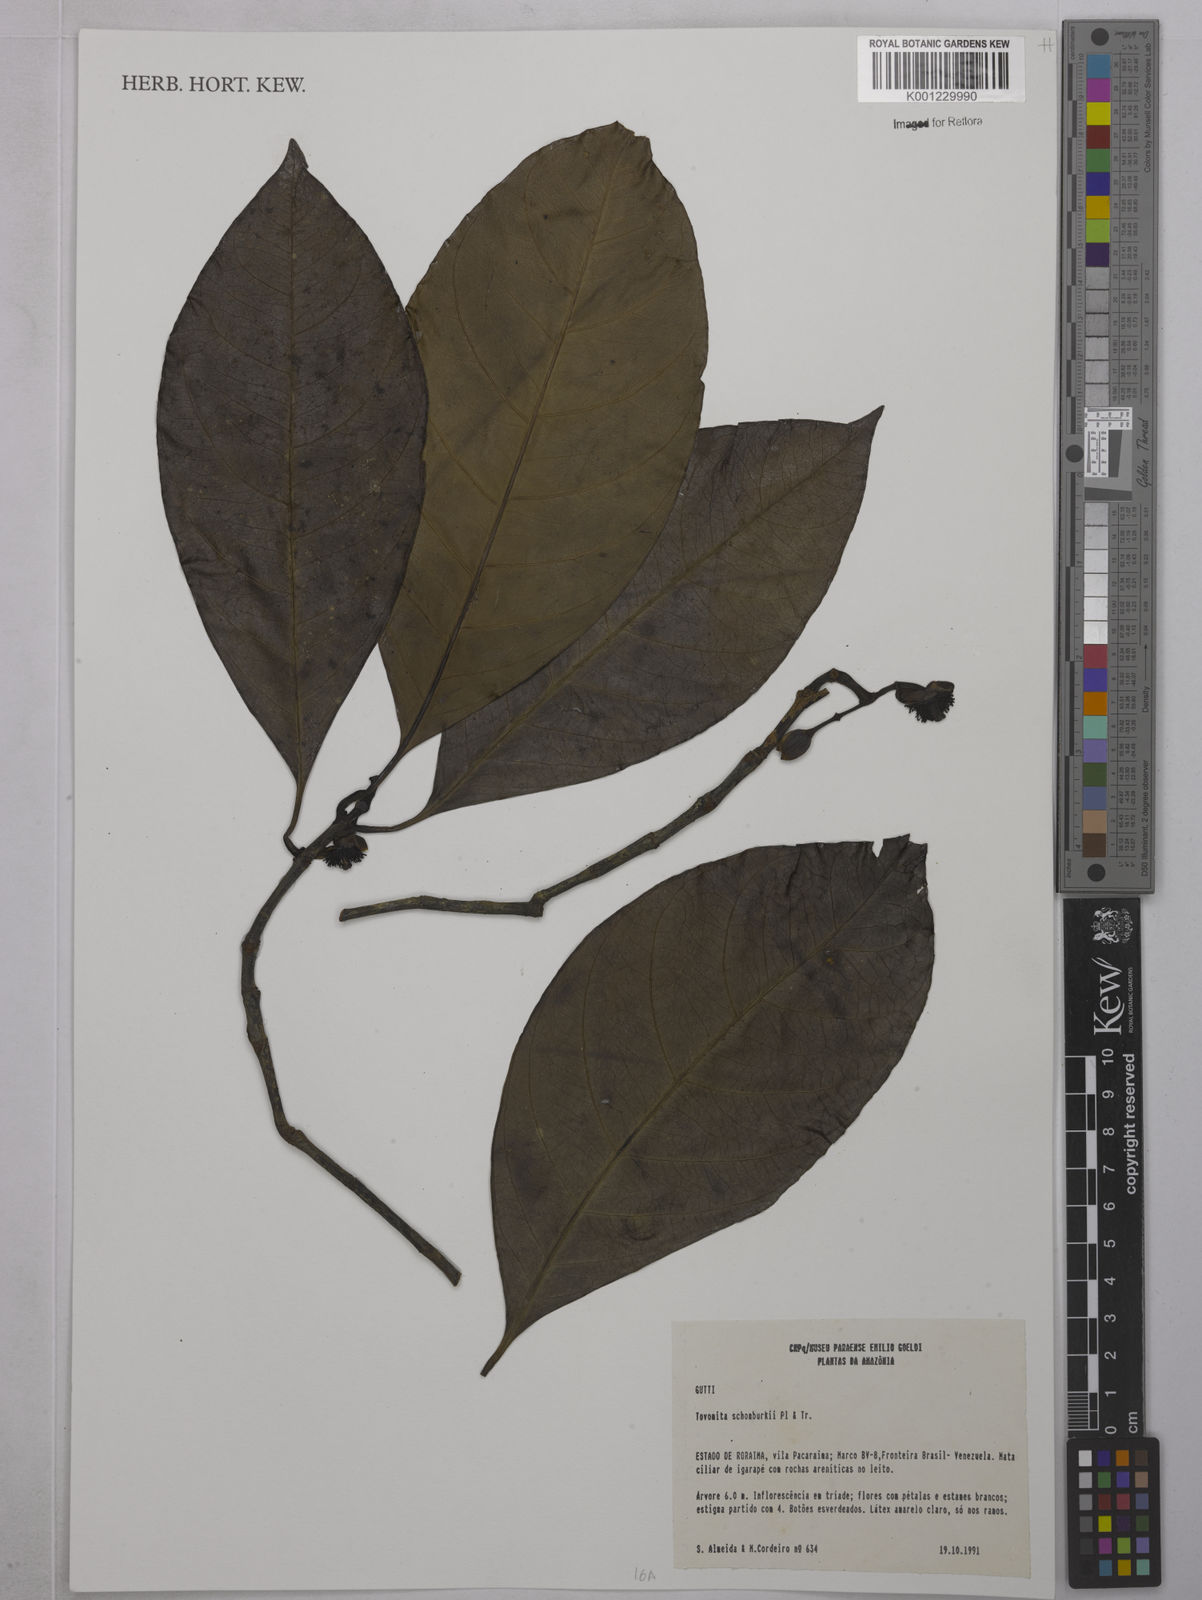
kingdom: Plantae
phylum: Tracheophyta
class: Magnoliopsida
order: Malpighiales
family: Clusiaceae
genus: Tovomita
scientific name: Tovomita schomburgkii
